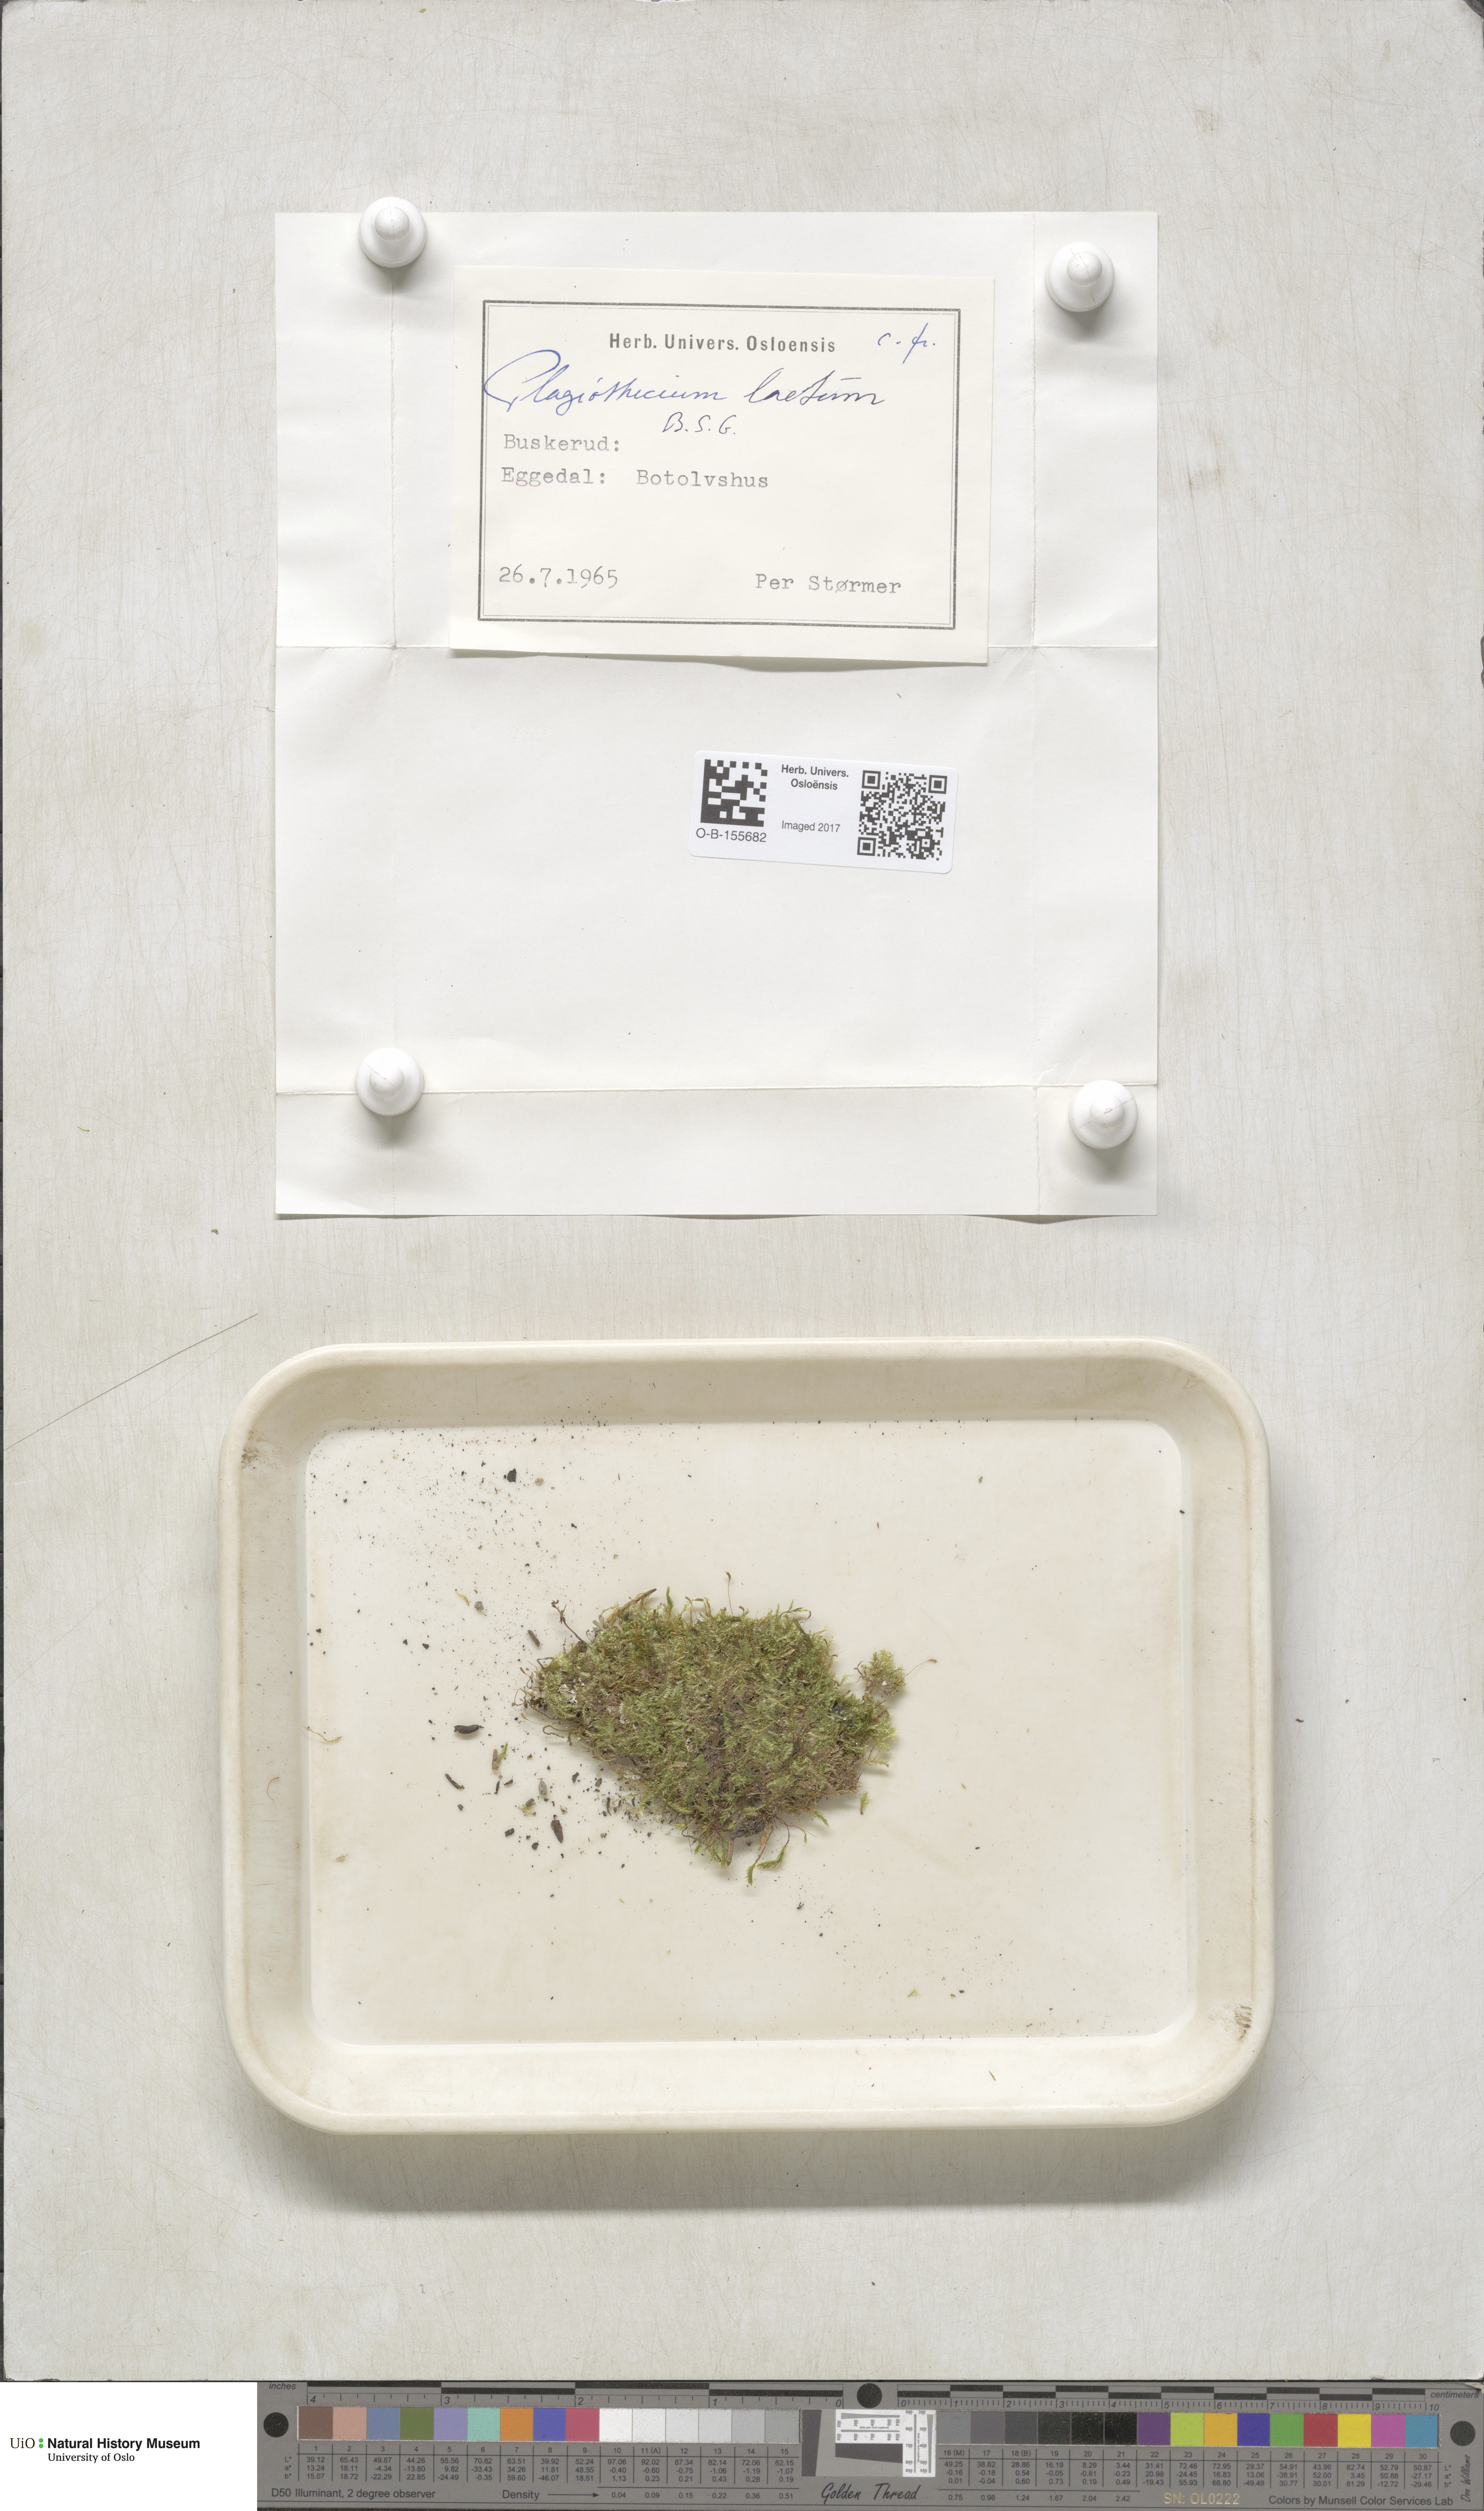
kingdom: Plantae
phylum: Bryophyta
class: Bryopsida
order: Hypnales
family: Plagiotheciaceae
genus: Plagiothecium
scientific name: Plagiothecium laetum
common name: Bright silk moss
